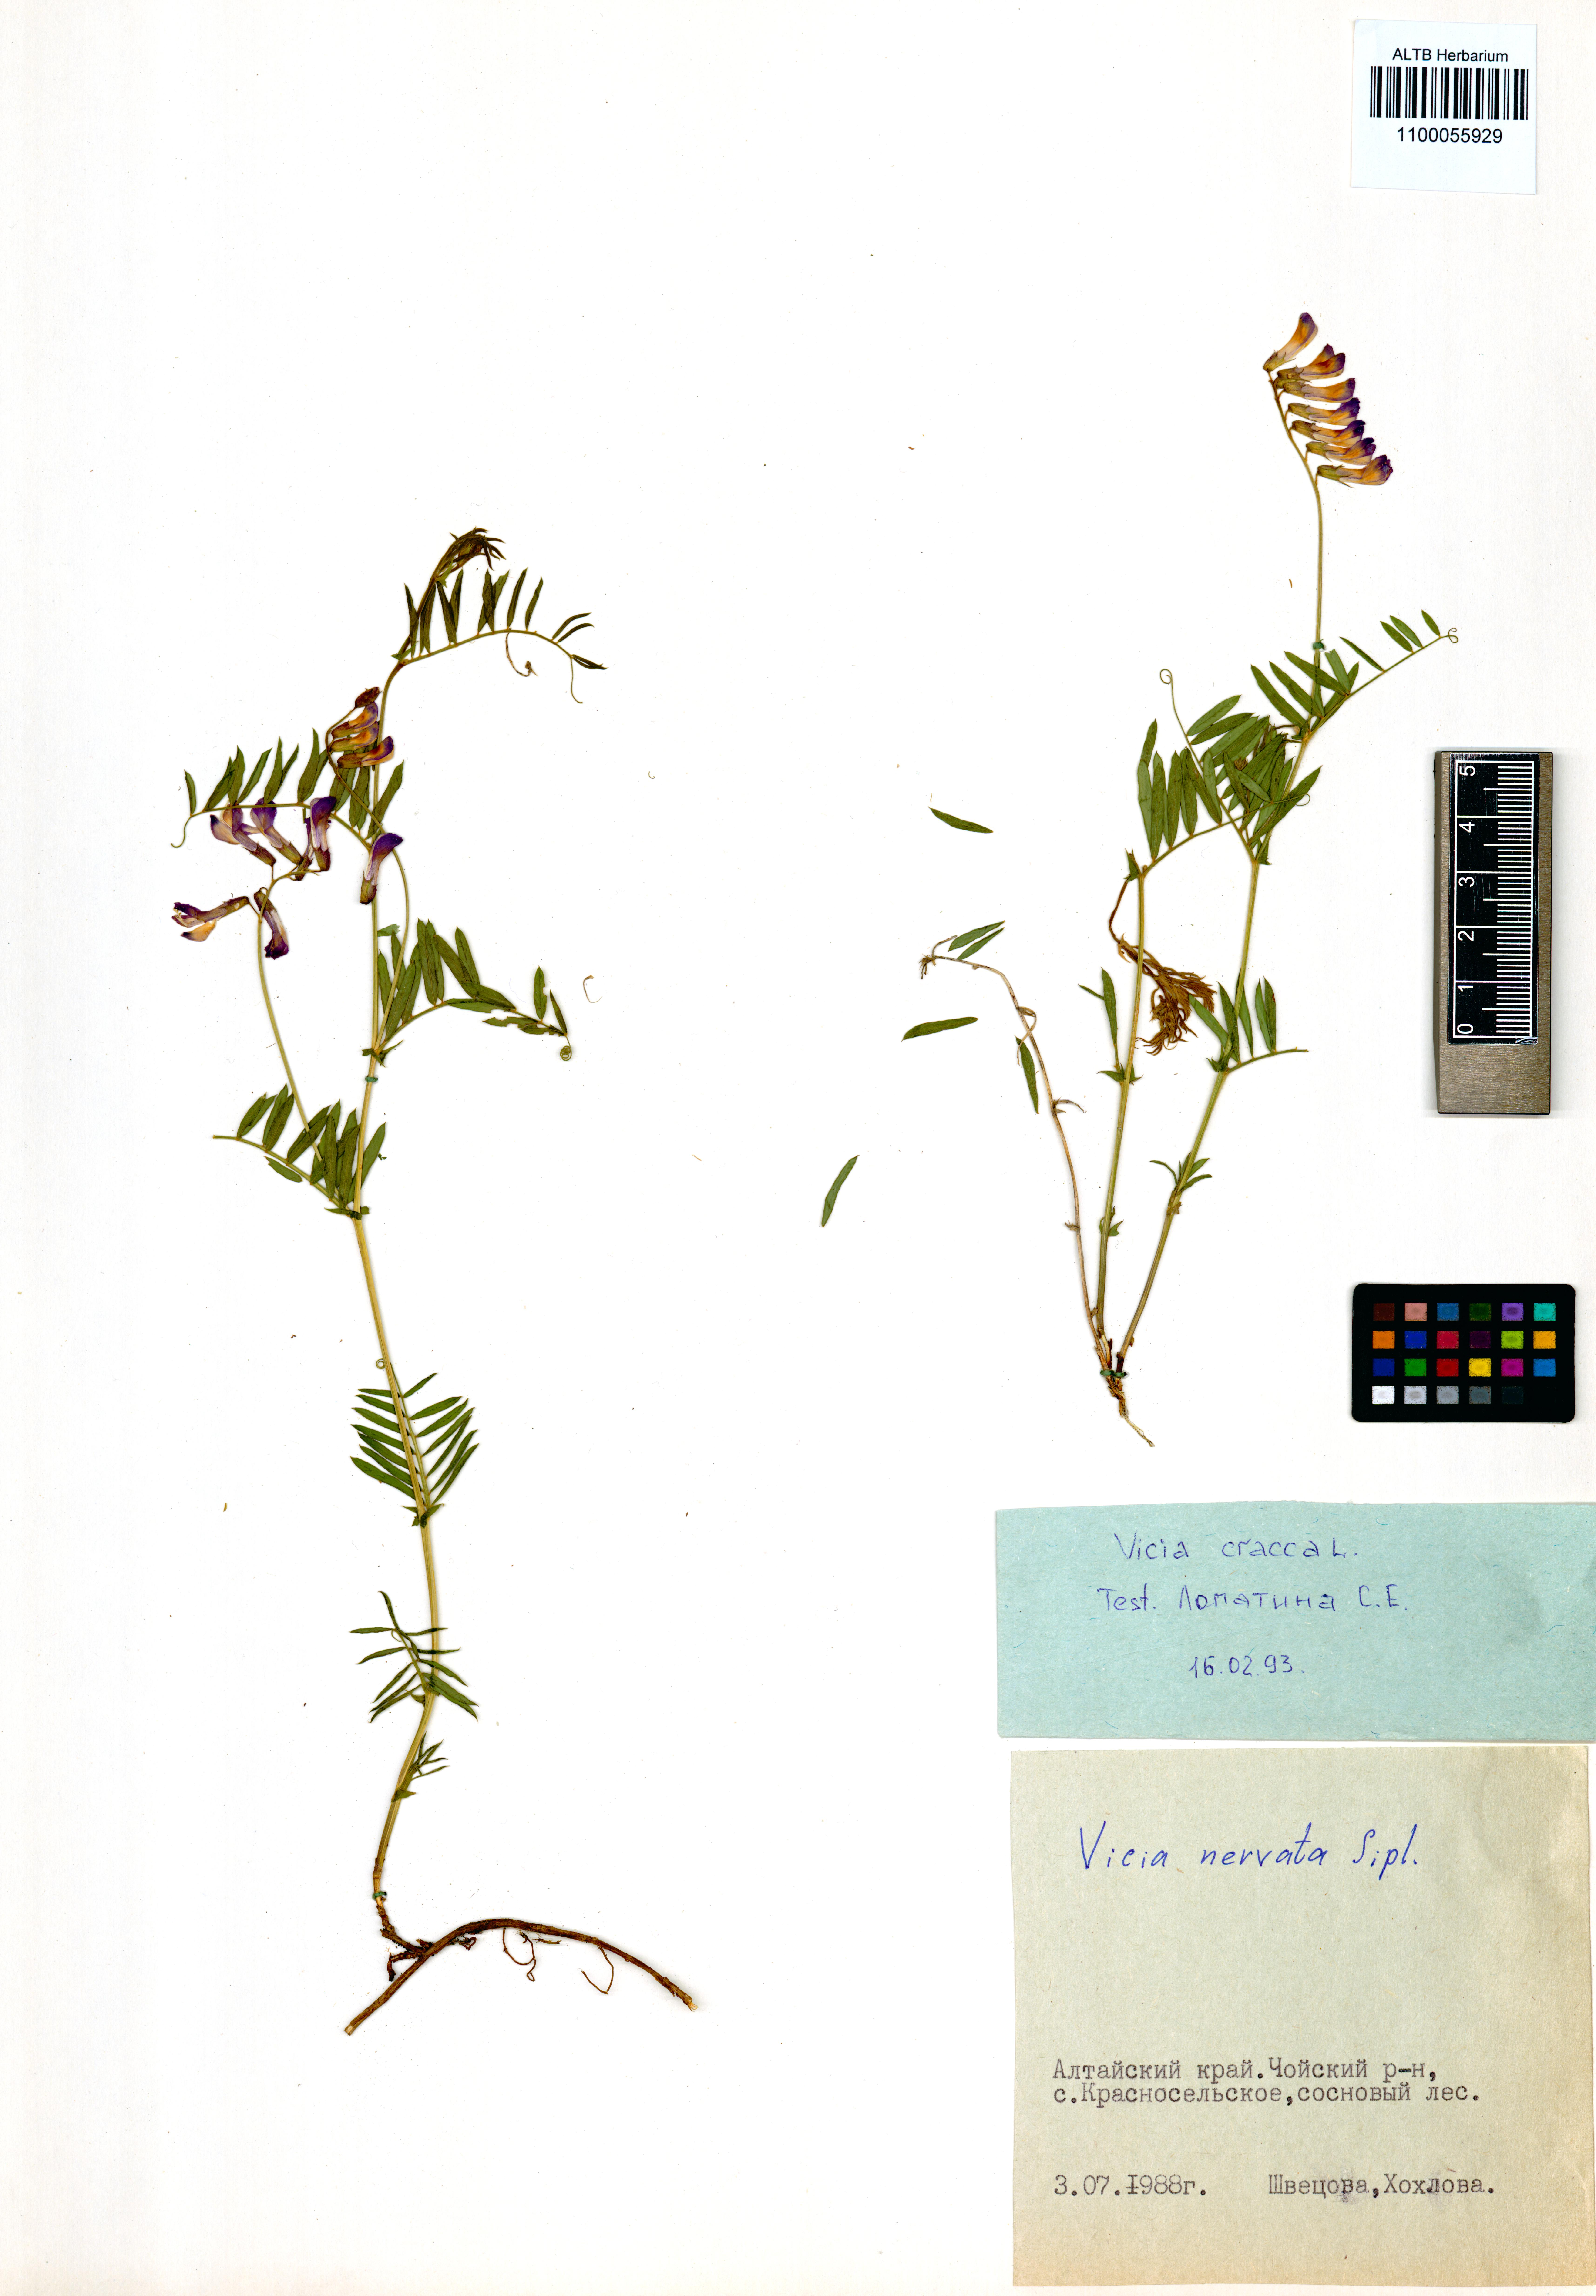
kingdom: Plantae
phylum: Tracheophyta
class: Magnoliopsida
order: Fabales
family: Fabaceae
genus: Vicia
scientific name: Vicia multicaulis
